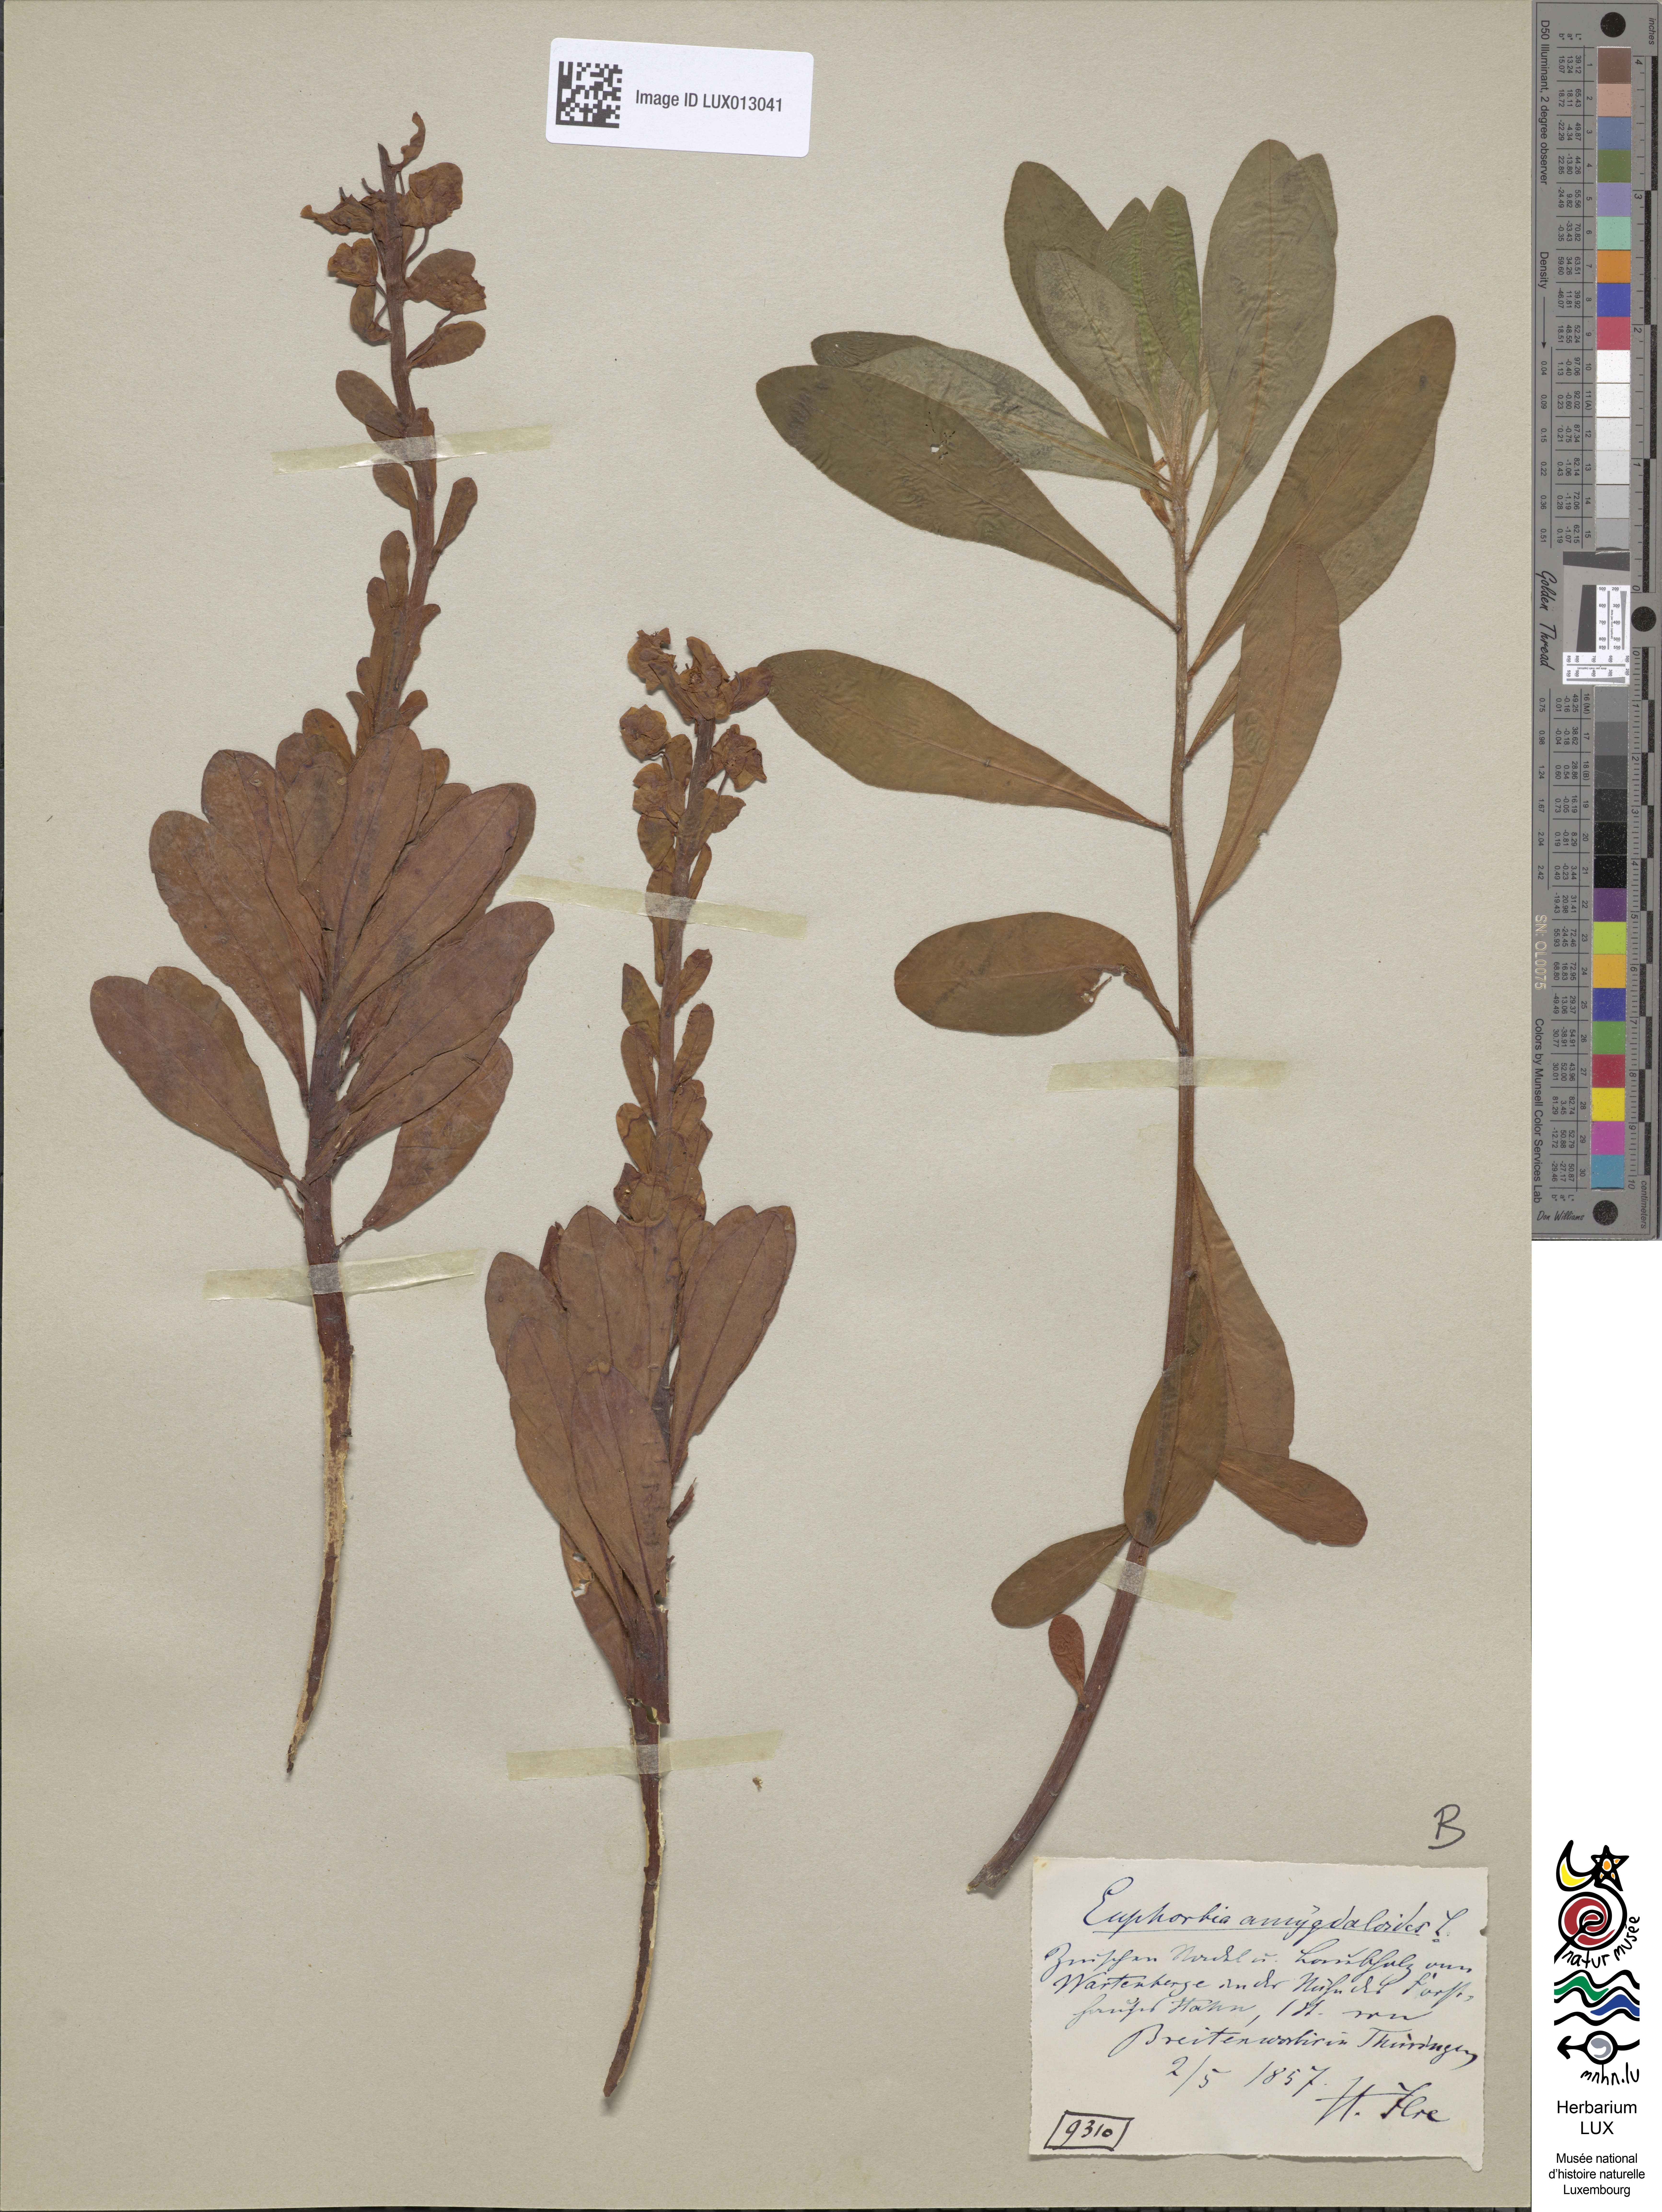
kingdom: Plantae
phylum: Tracheophyta
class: Magnoliopsida
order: Malpighiales
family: Euphorbiaceae
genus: Euphorbia
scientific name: Euphorbia amygdaloides
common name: Wood spurge
